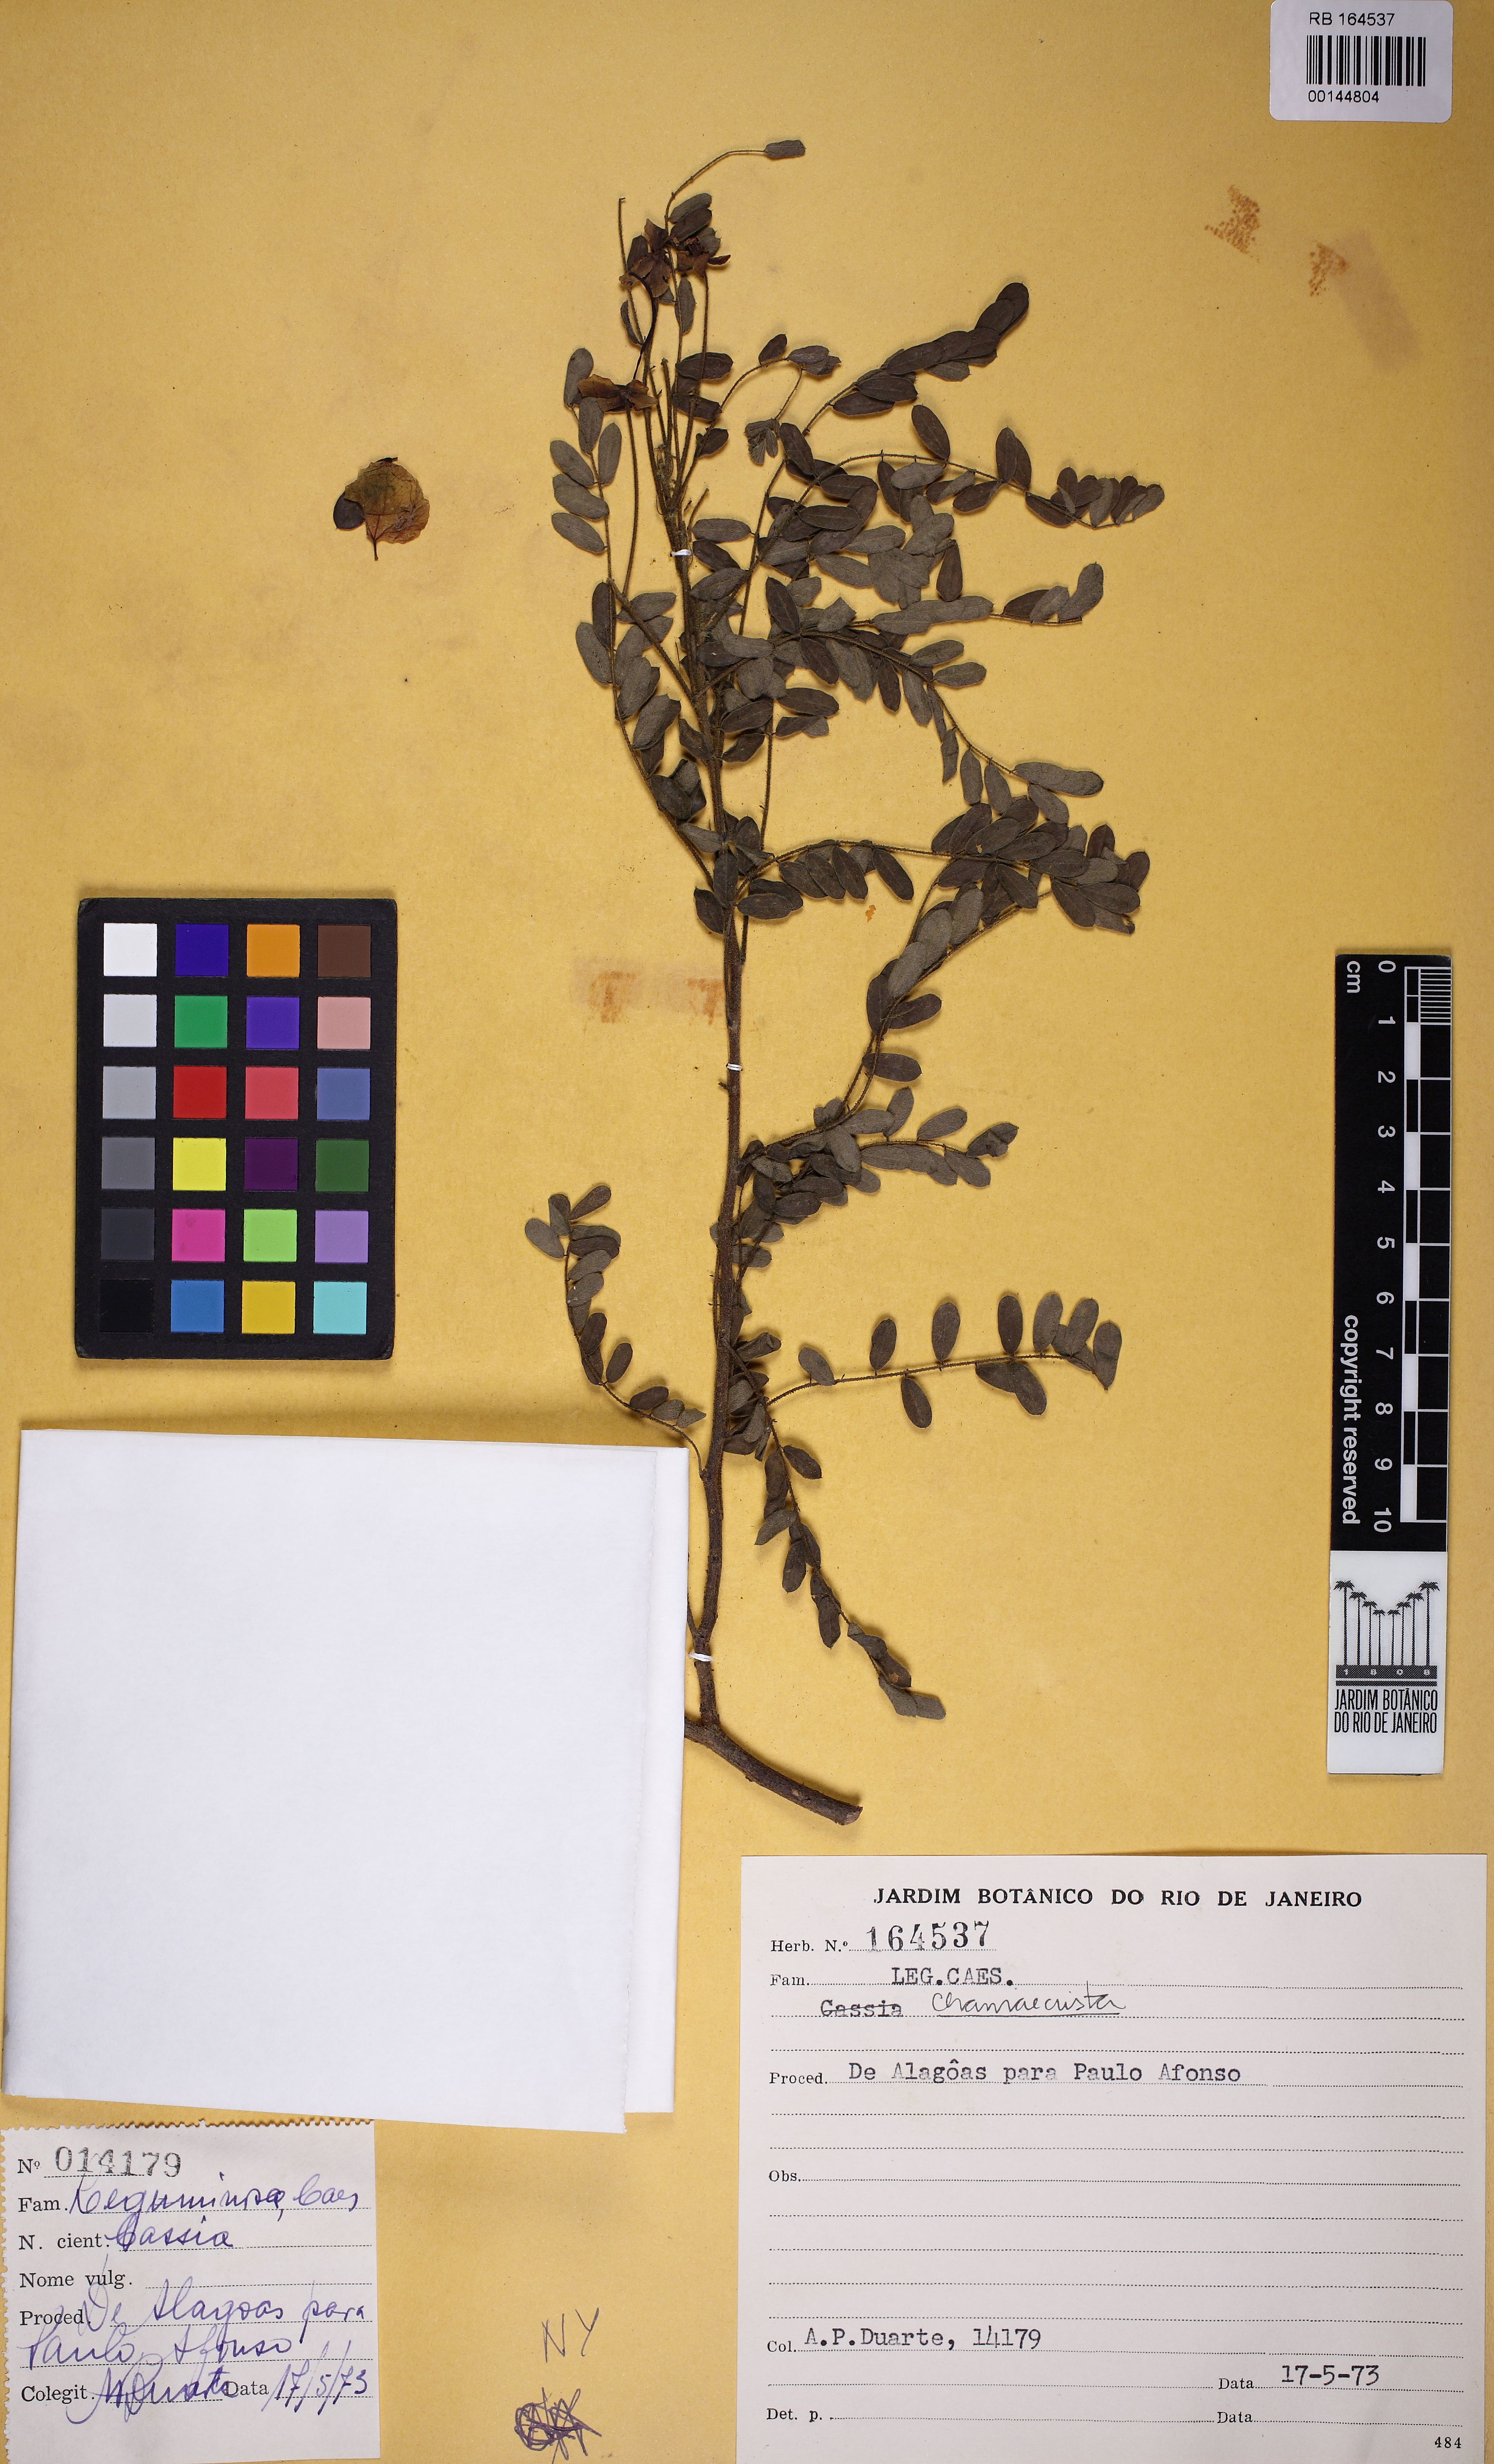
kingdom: Plantae
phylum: Tracheophyta
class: Magnoliopsida
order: Fabales
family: Fabaceae
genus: Chamaecrista
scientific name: Chamaecrista
